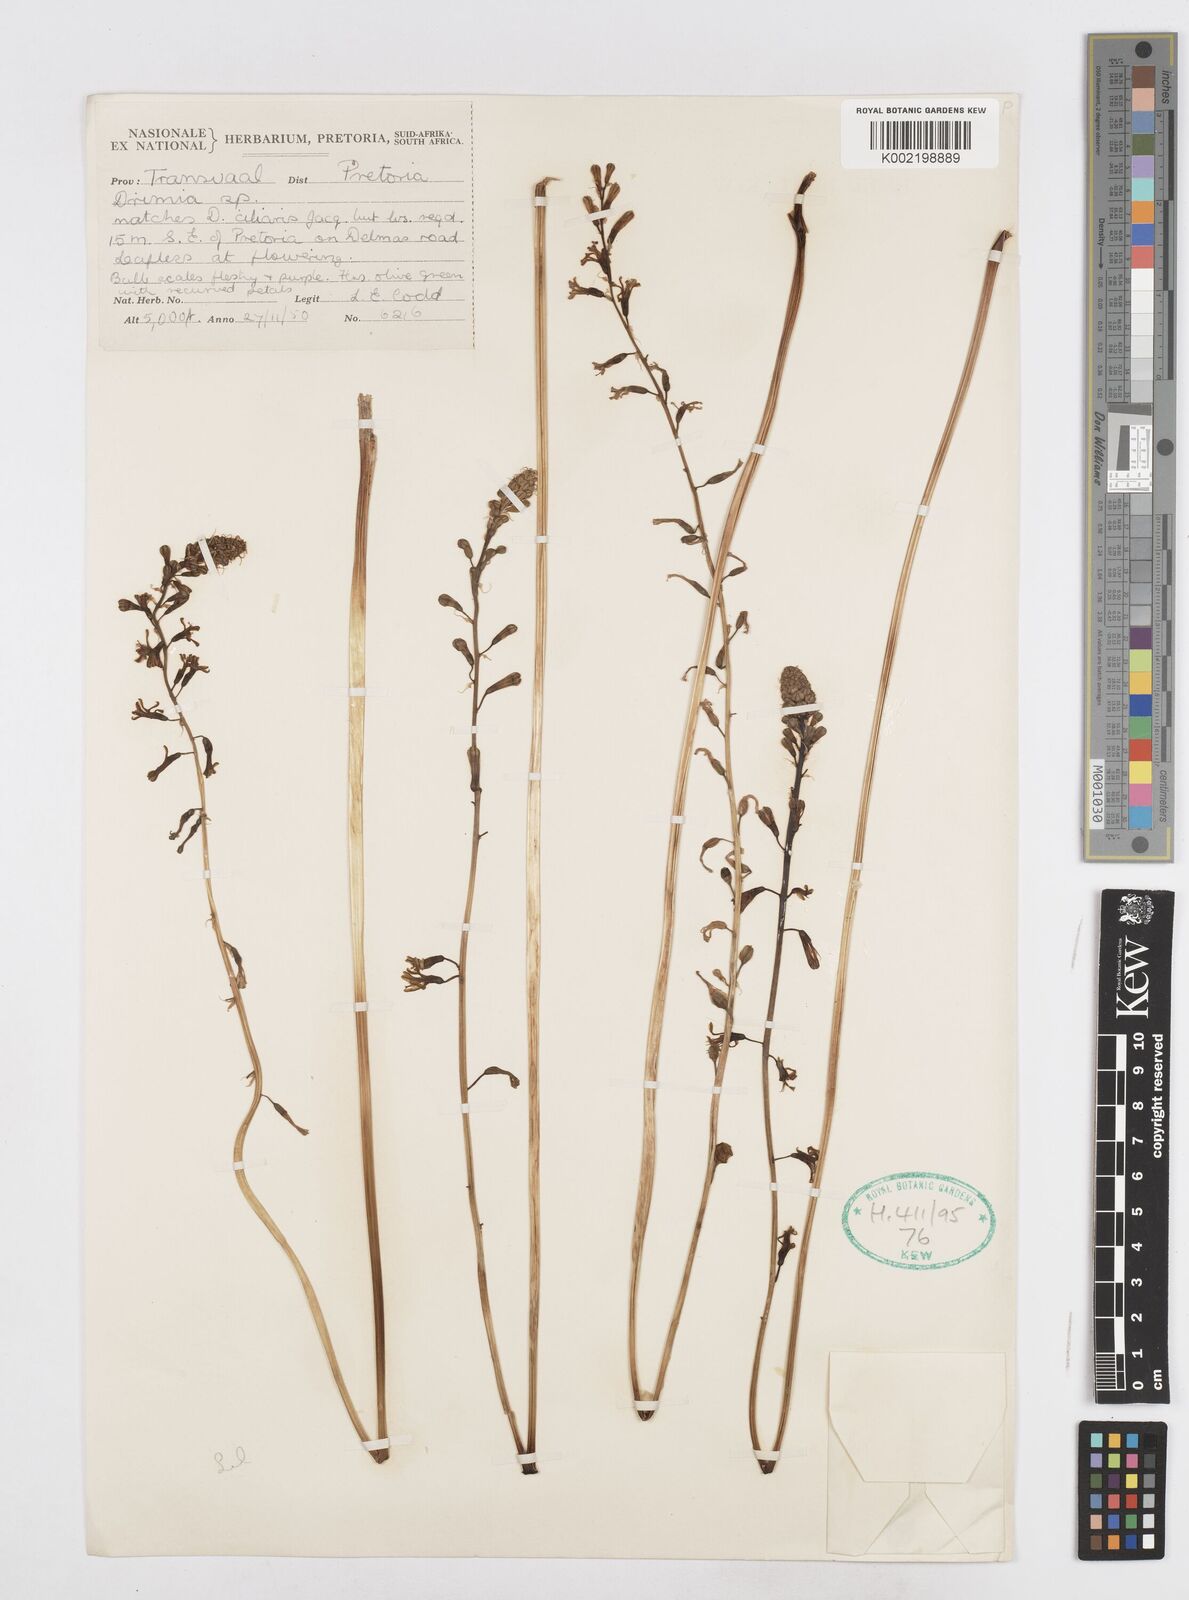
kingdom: Plantae
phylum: Tracheophyta
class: Liliopsida
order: Asparagales
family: Asparagaceae
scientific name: Asparagaceae
